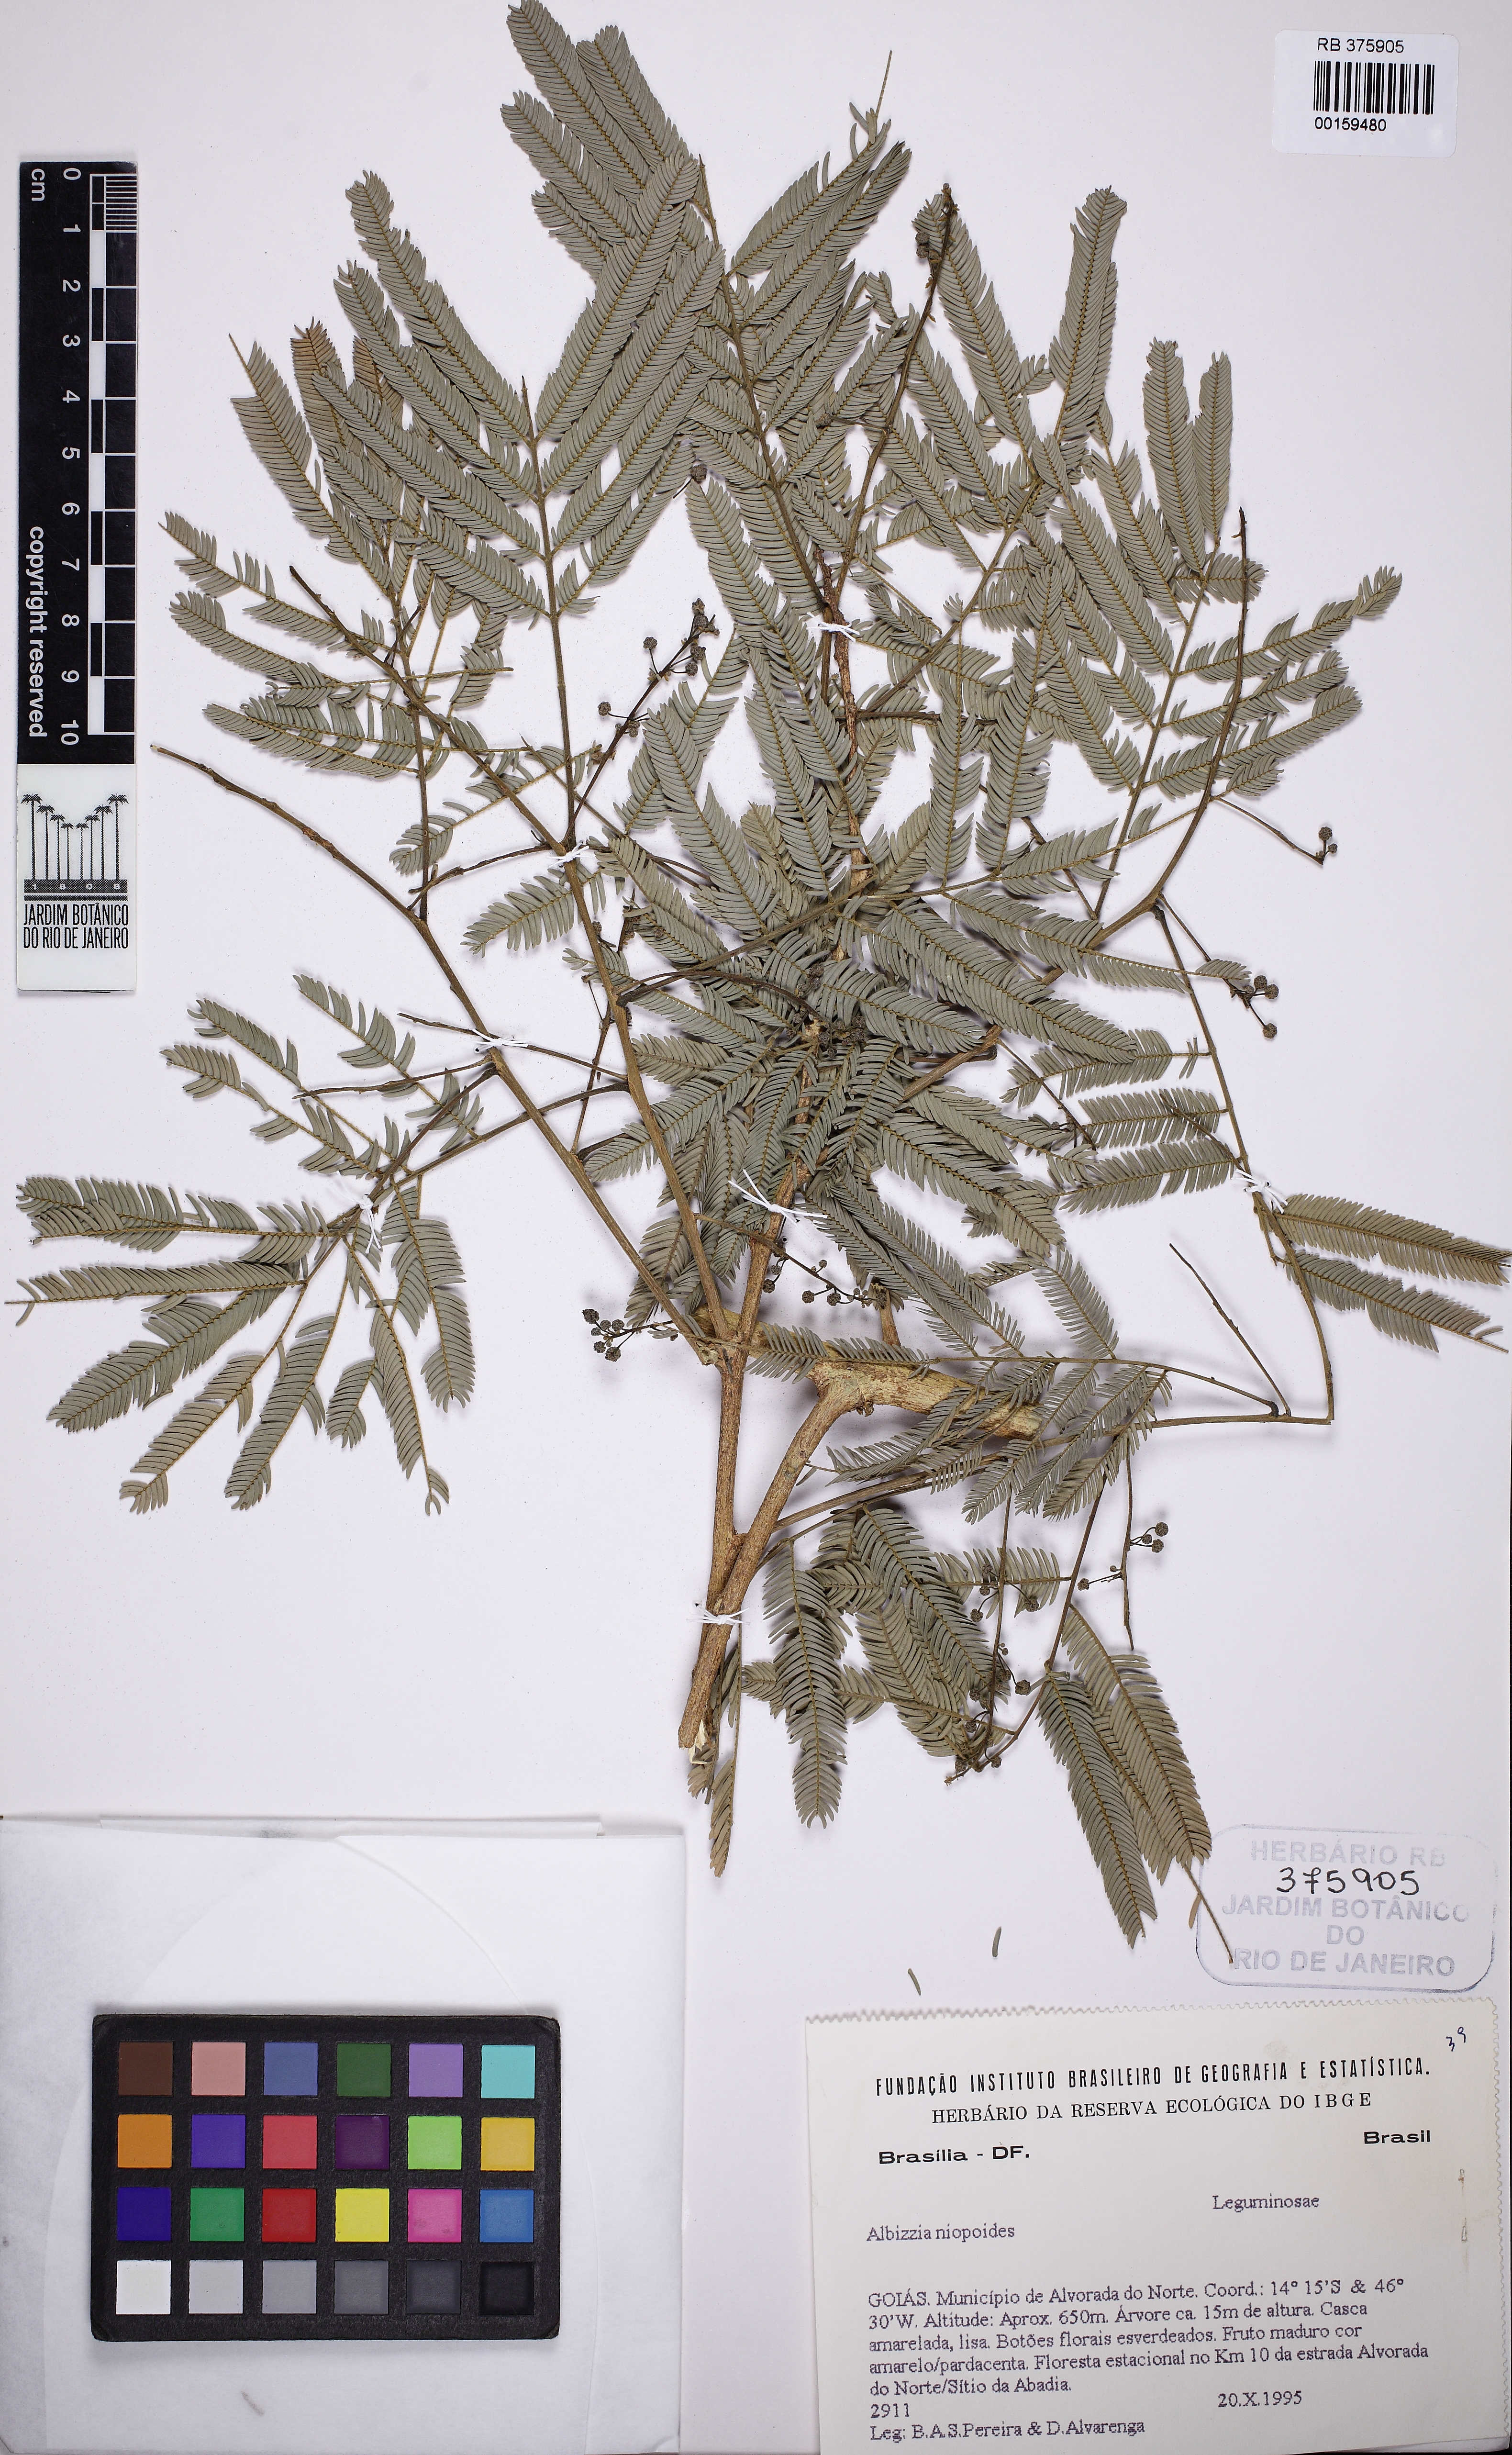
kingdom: Plantae
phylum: Tracheophyta
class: Magnoliopsida
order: Fabales
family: Fabaceae
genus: Albizia
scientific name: Albizia niopoides
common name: Silk tree
